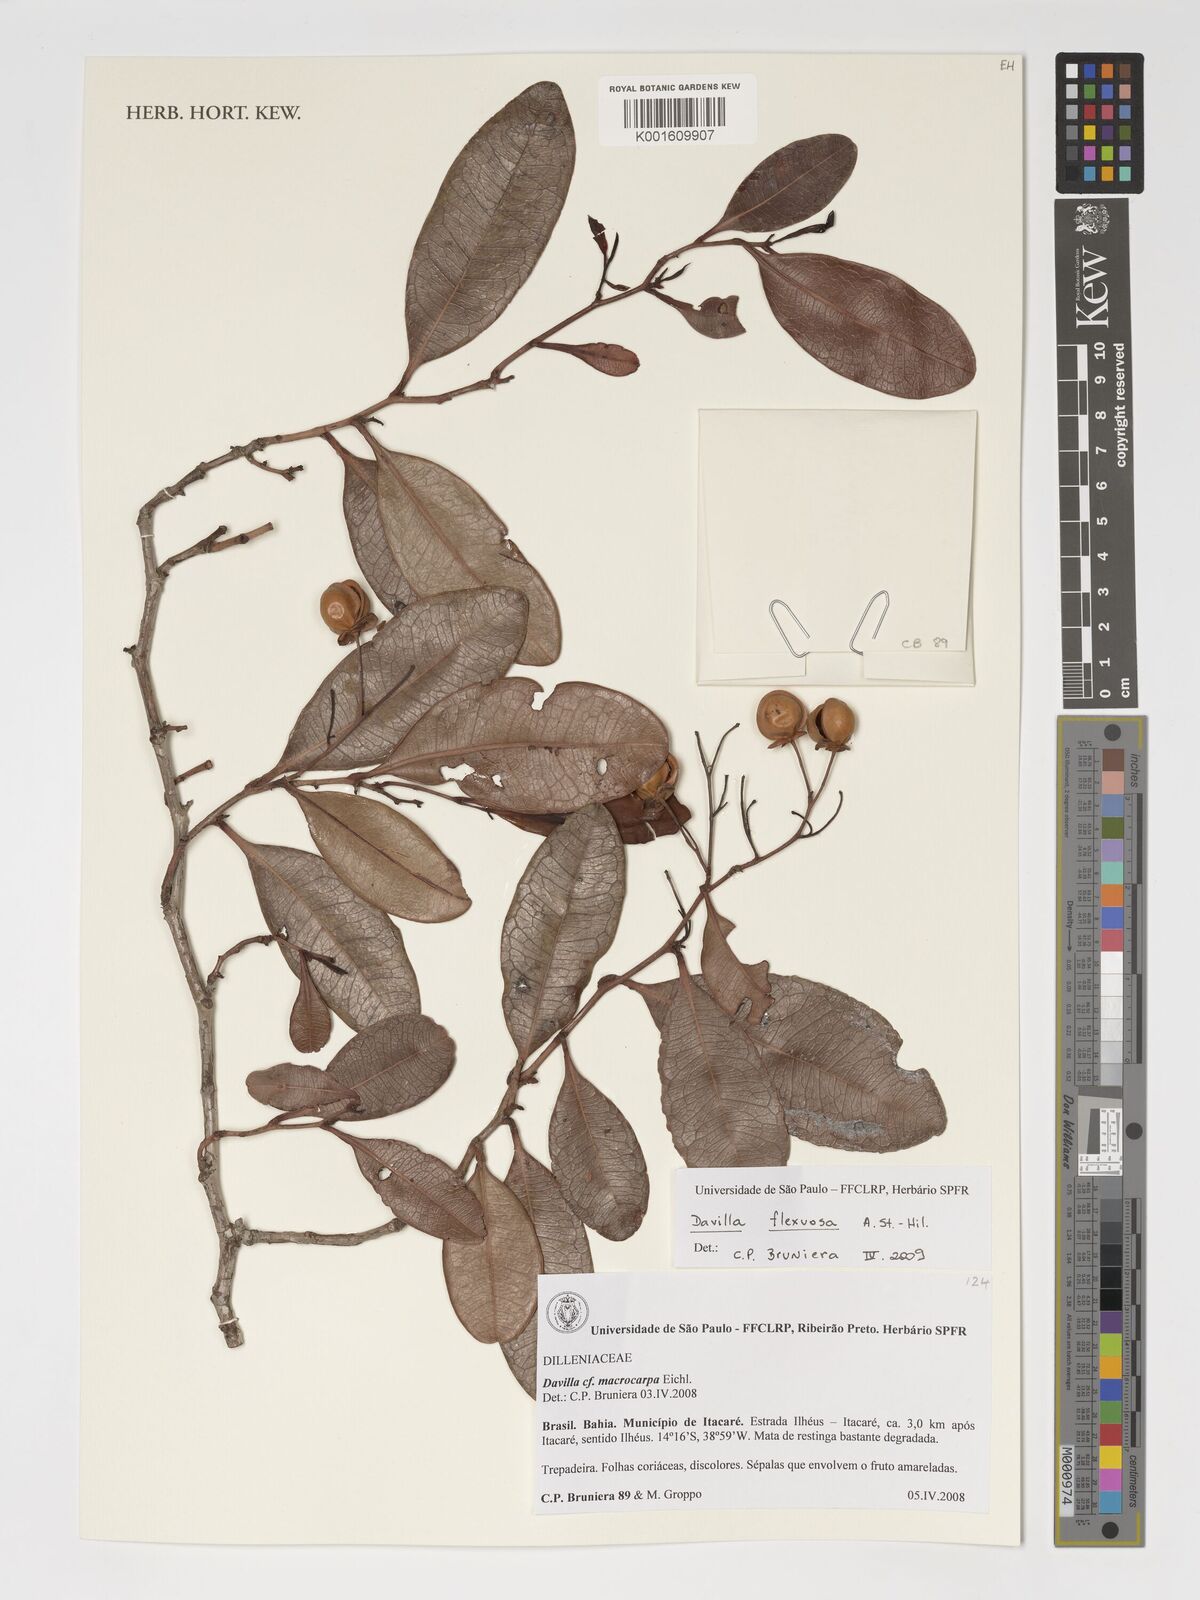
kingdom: Plantae
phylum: Tracheophyta
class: Magnoliopsida
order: Dilleniales
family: Dilleniaceae
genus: Davilla
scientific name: Davilla flexuosa
